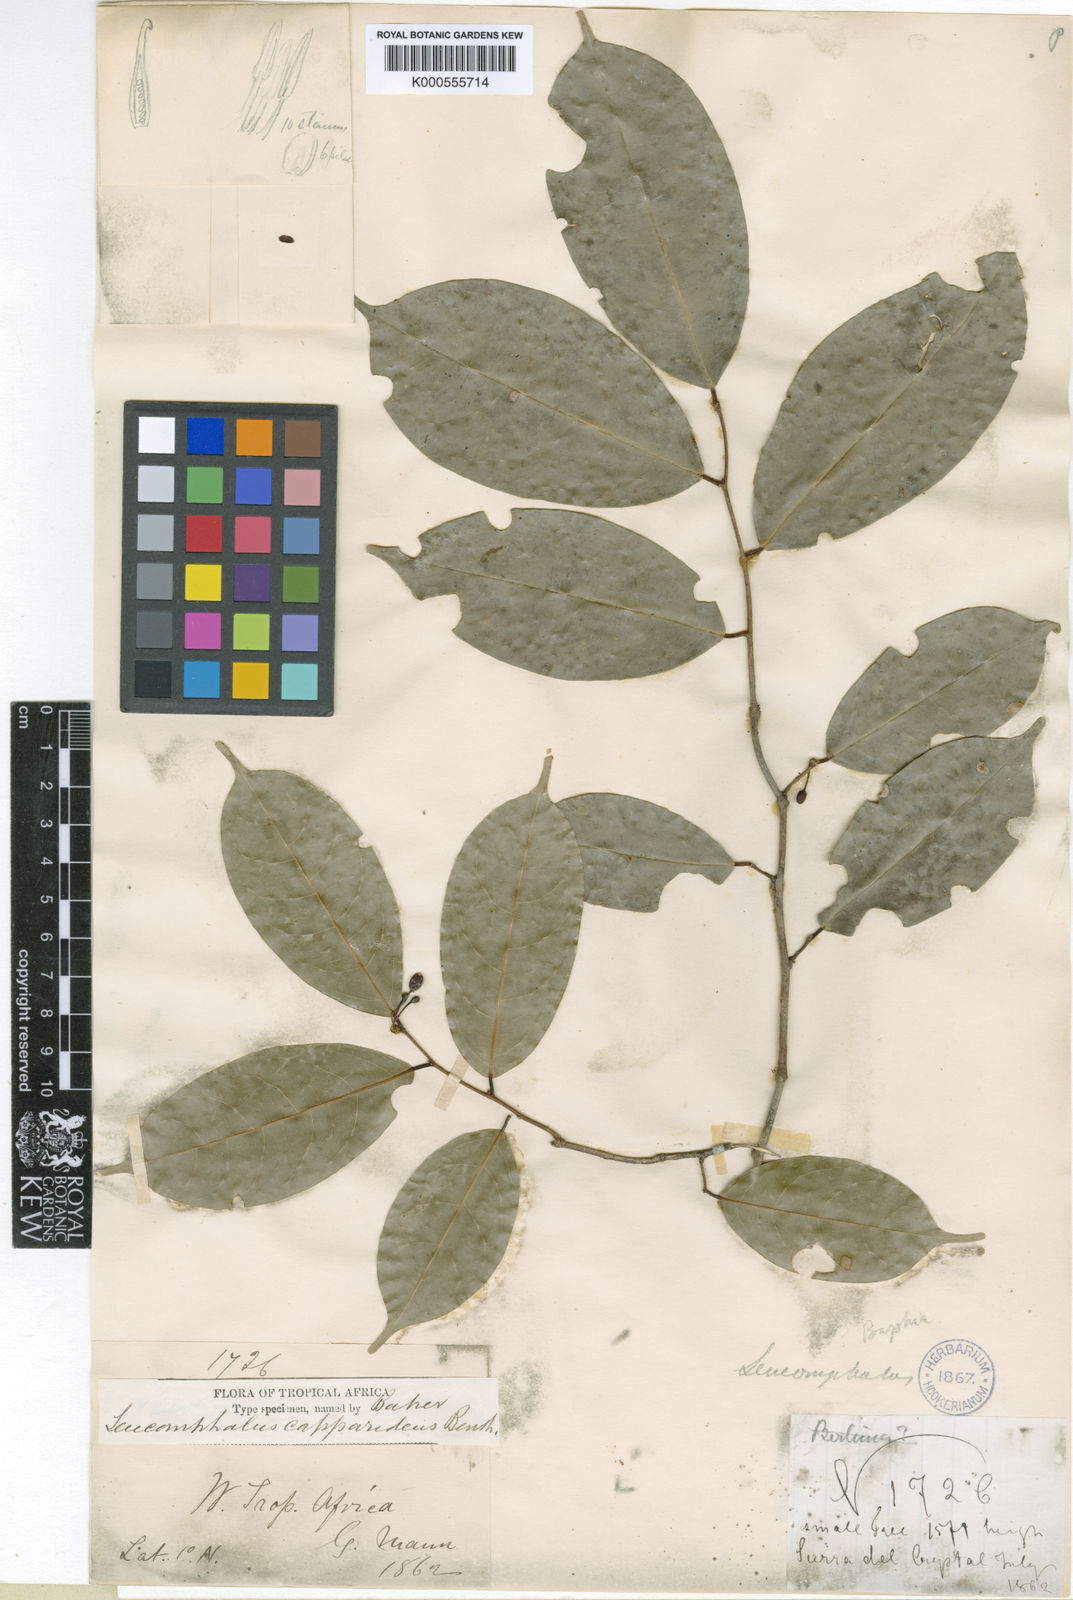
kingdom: Plantae
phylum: Tracheophyta
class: Magnoliopsida
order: Fabales
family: Fabaceae
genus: Leucomphalos
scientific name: Leucomphalos capparideus
